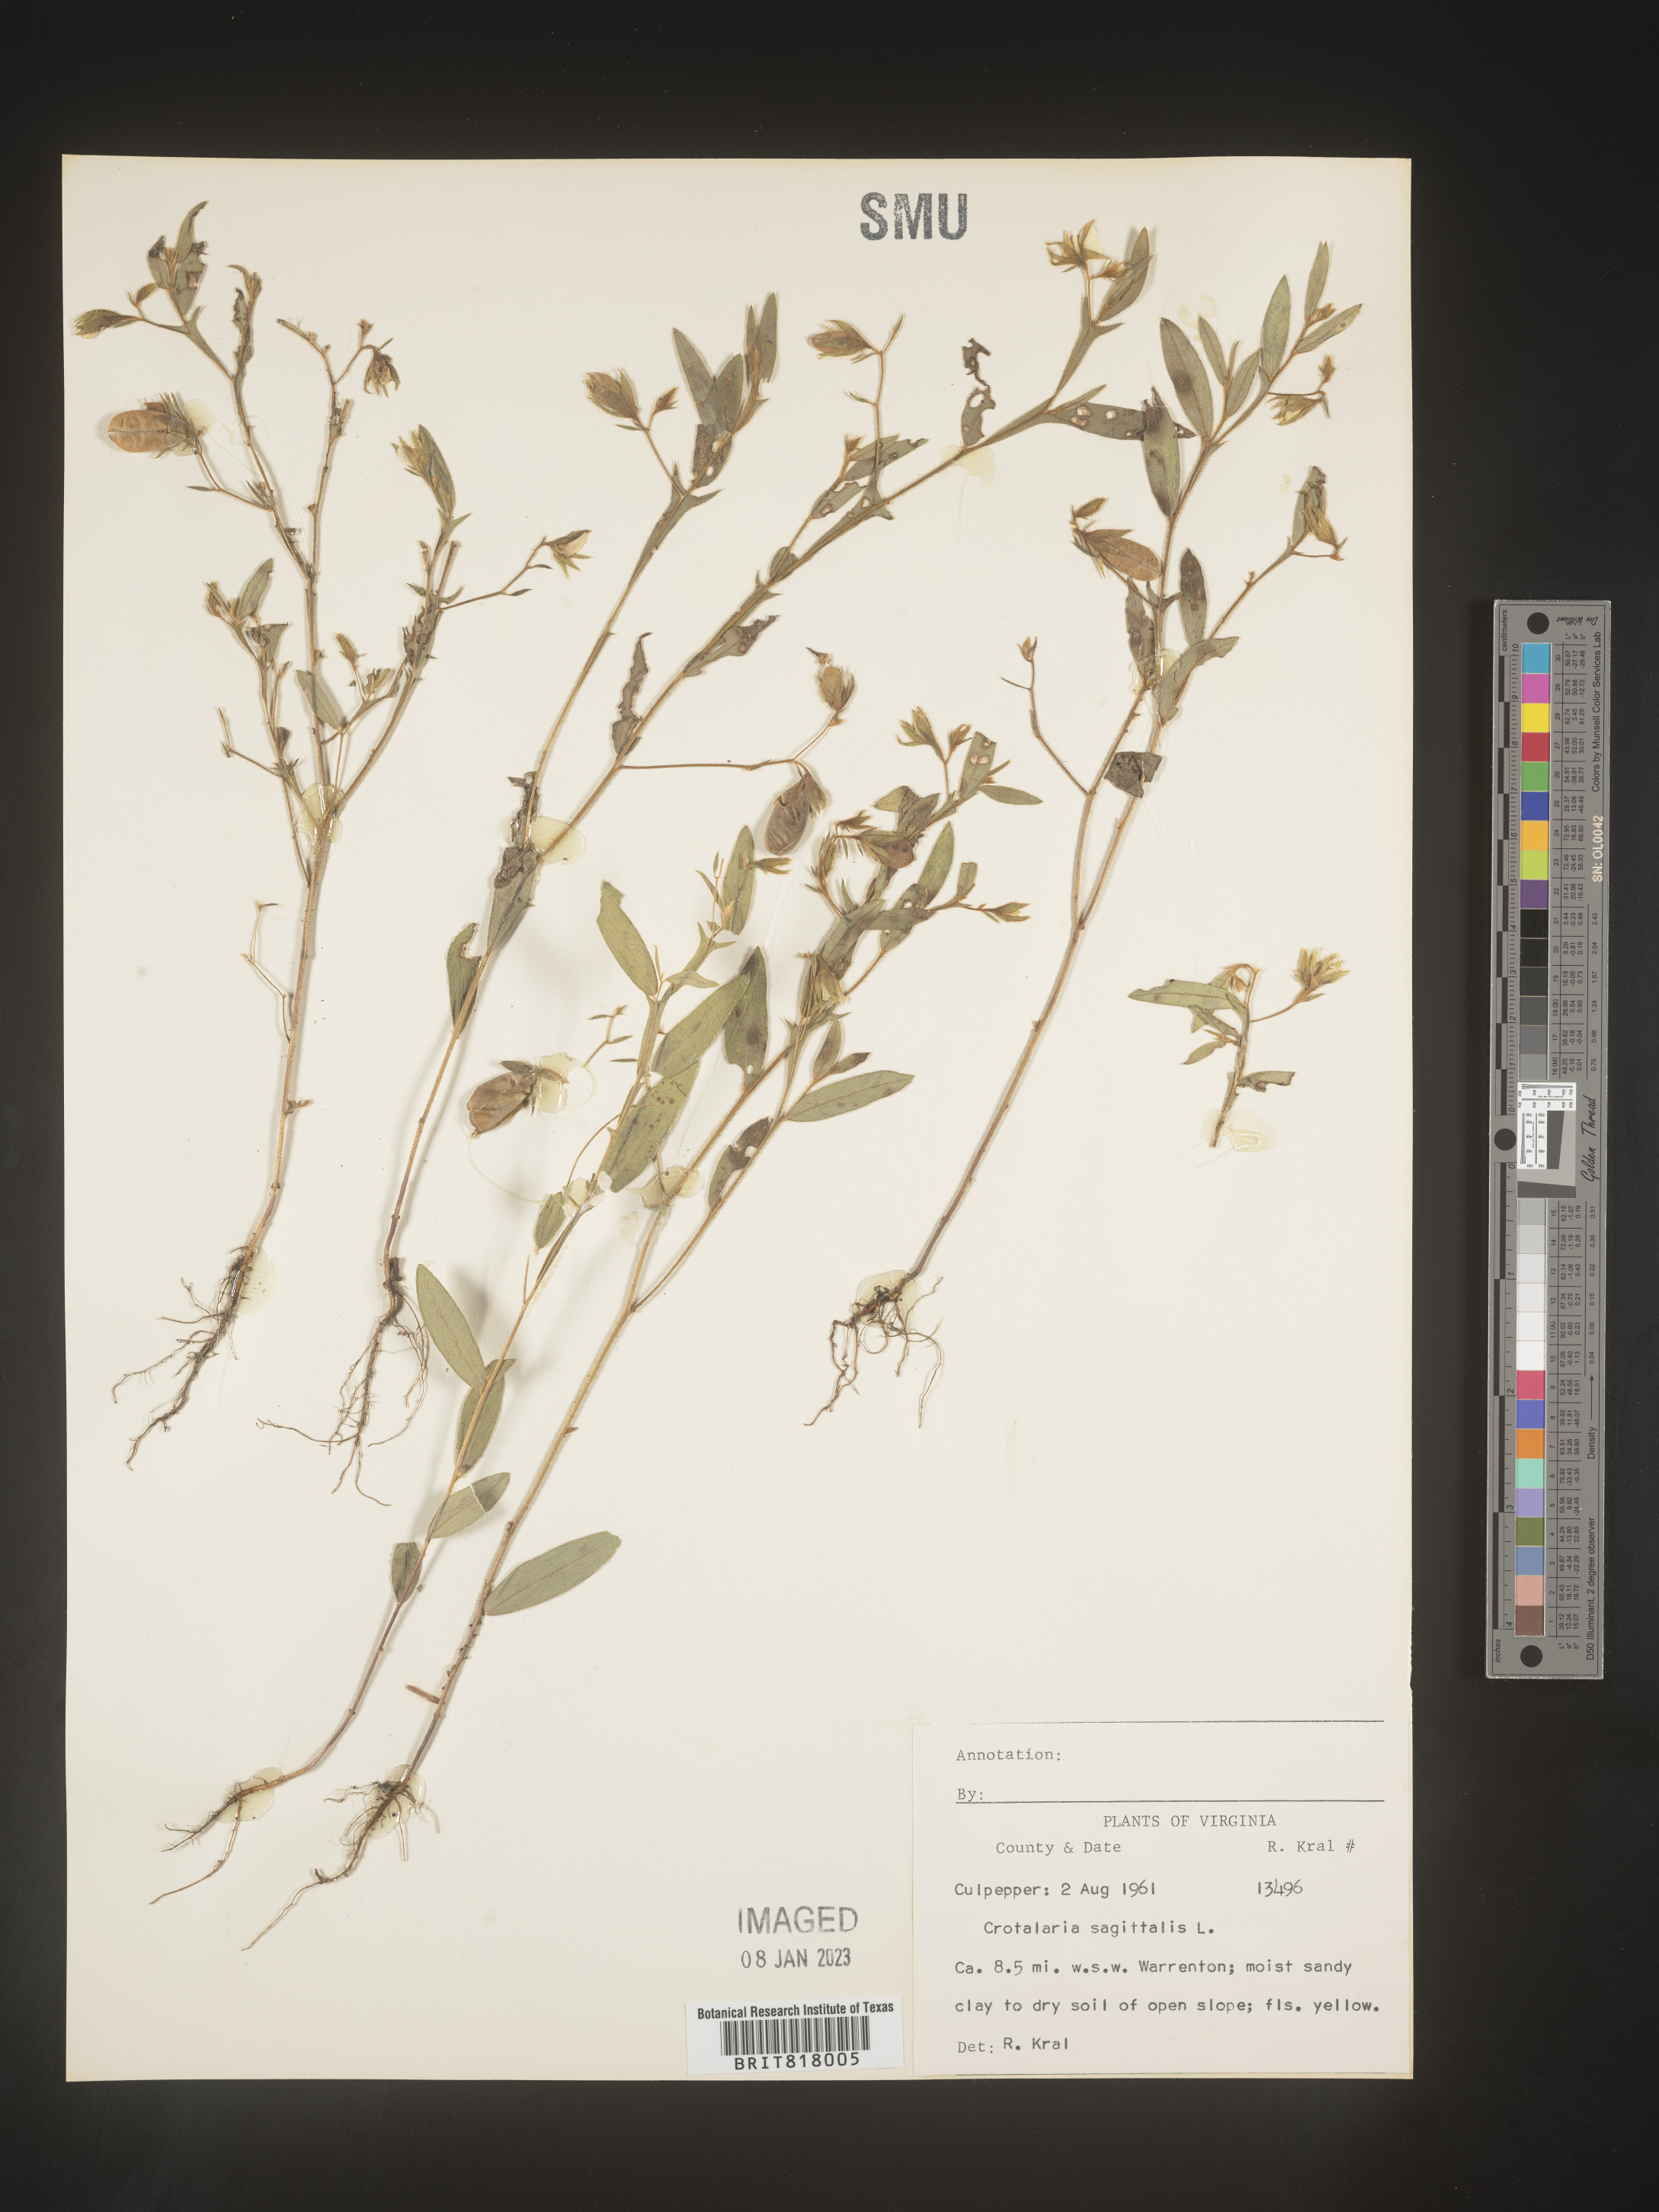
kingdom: Plantae
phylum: Tracheophyta
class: Magnoliopsida
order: Fabales
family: Fabaceae
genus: Crotalaria
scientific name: Crotalaria sagittalis
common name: Arrowhead rattlebox
